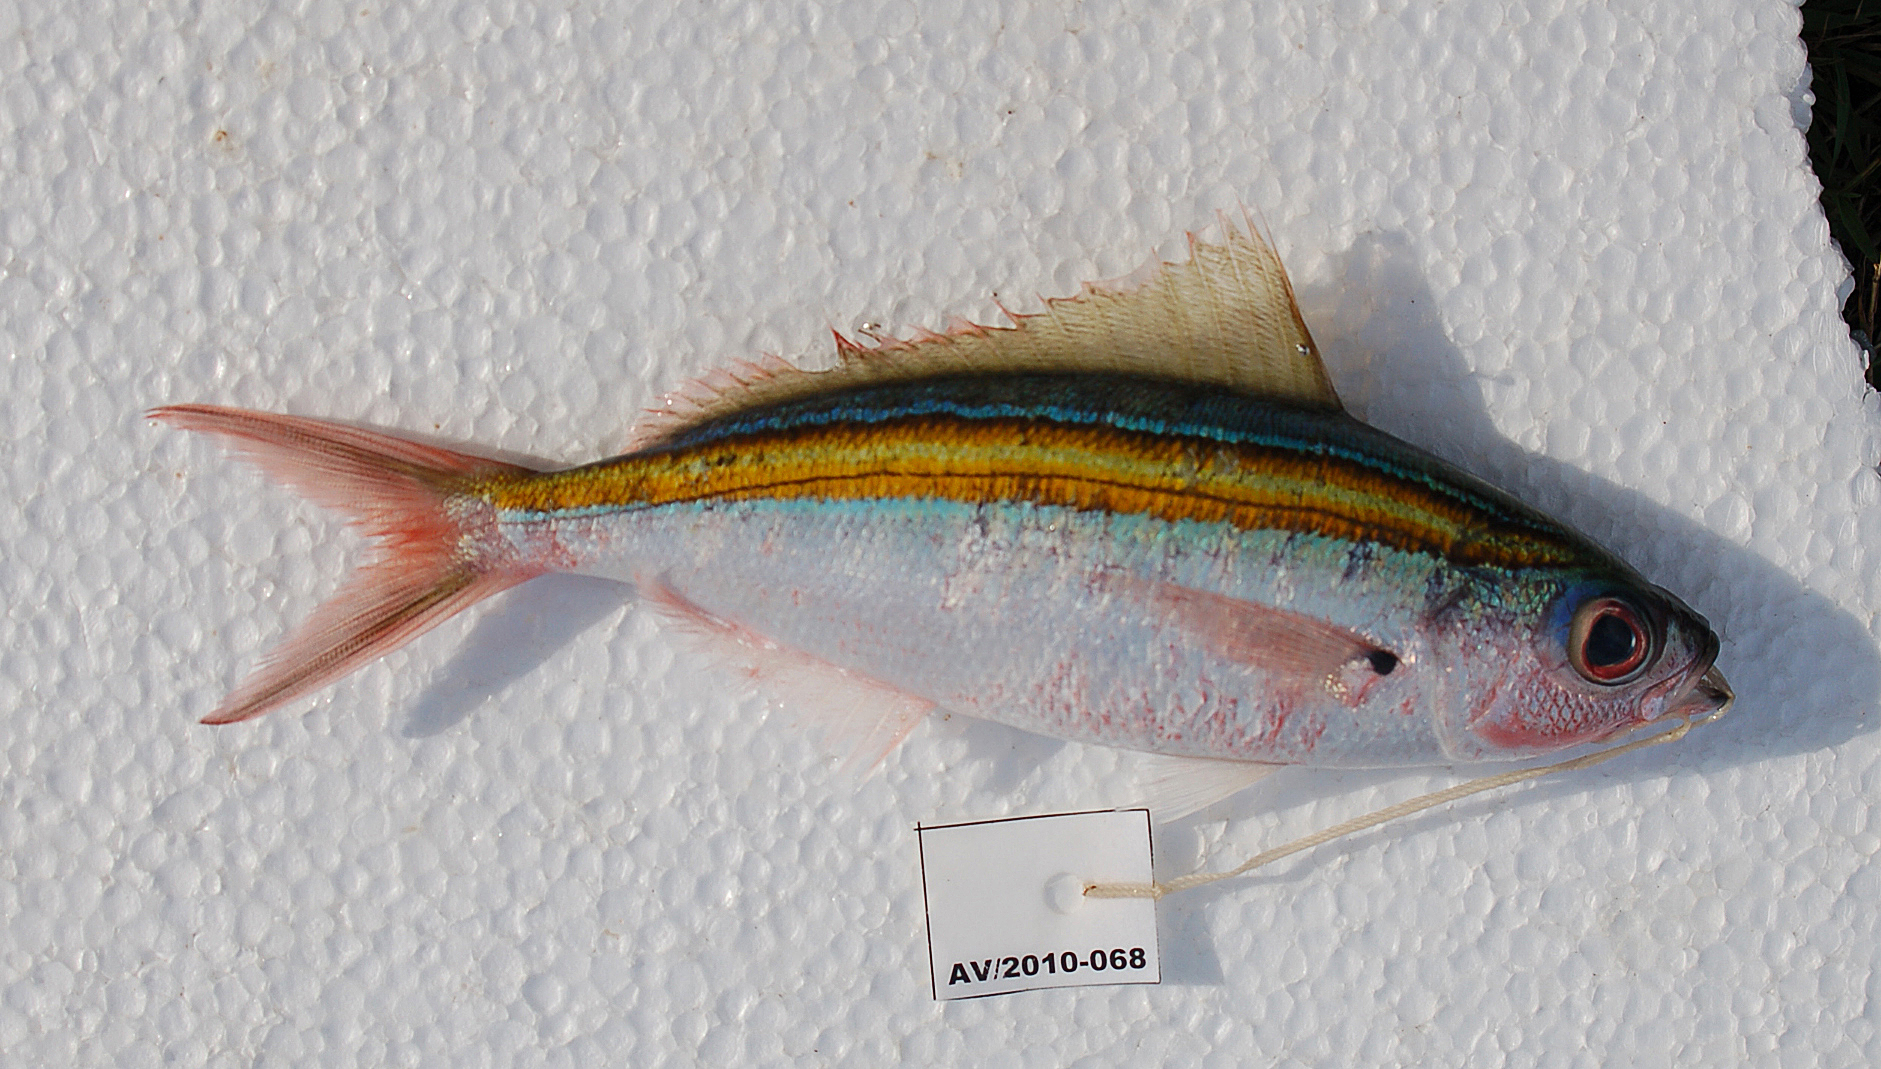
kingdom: Animalia
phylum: Chordata
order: Perciformes
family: Caesionidae
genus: Caesio
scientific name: Caesio xanthalytos
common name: Goldsash fusilier
